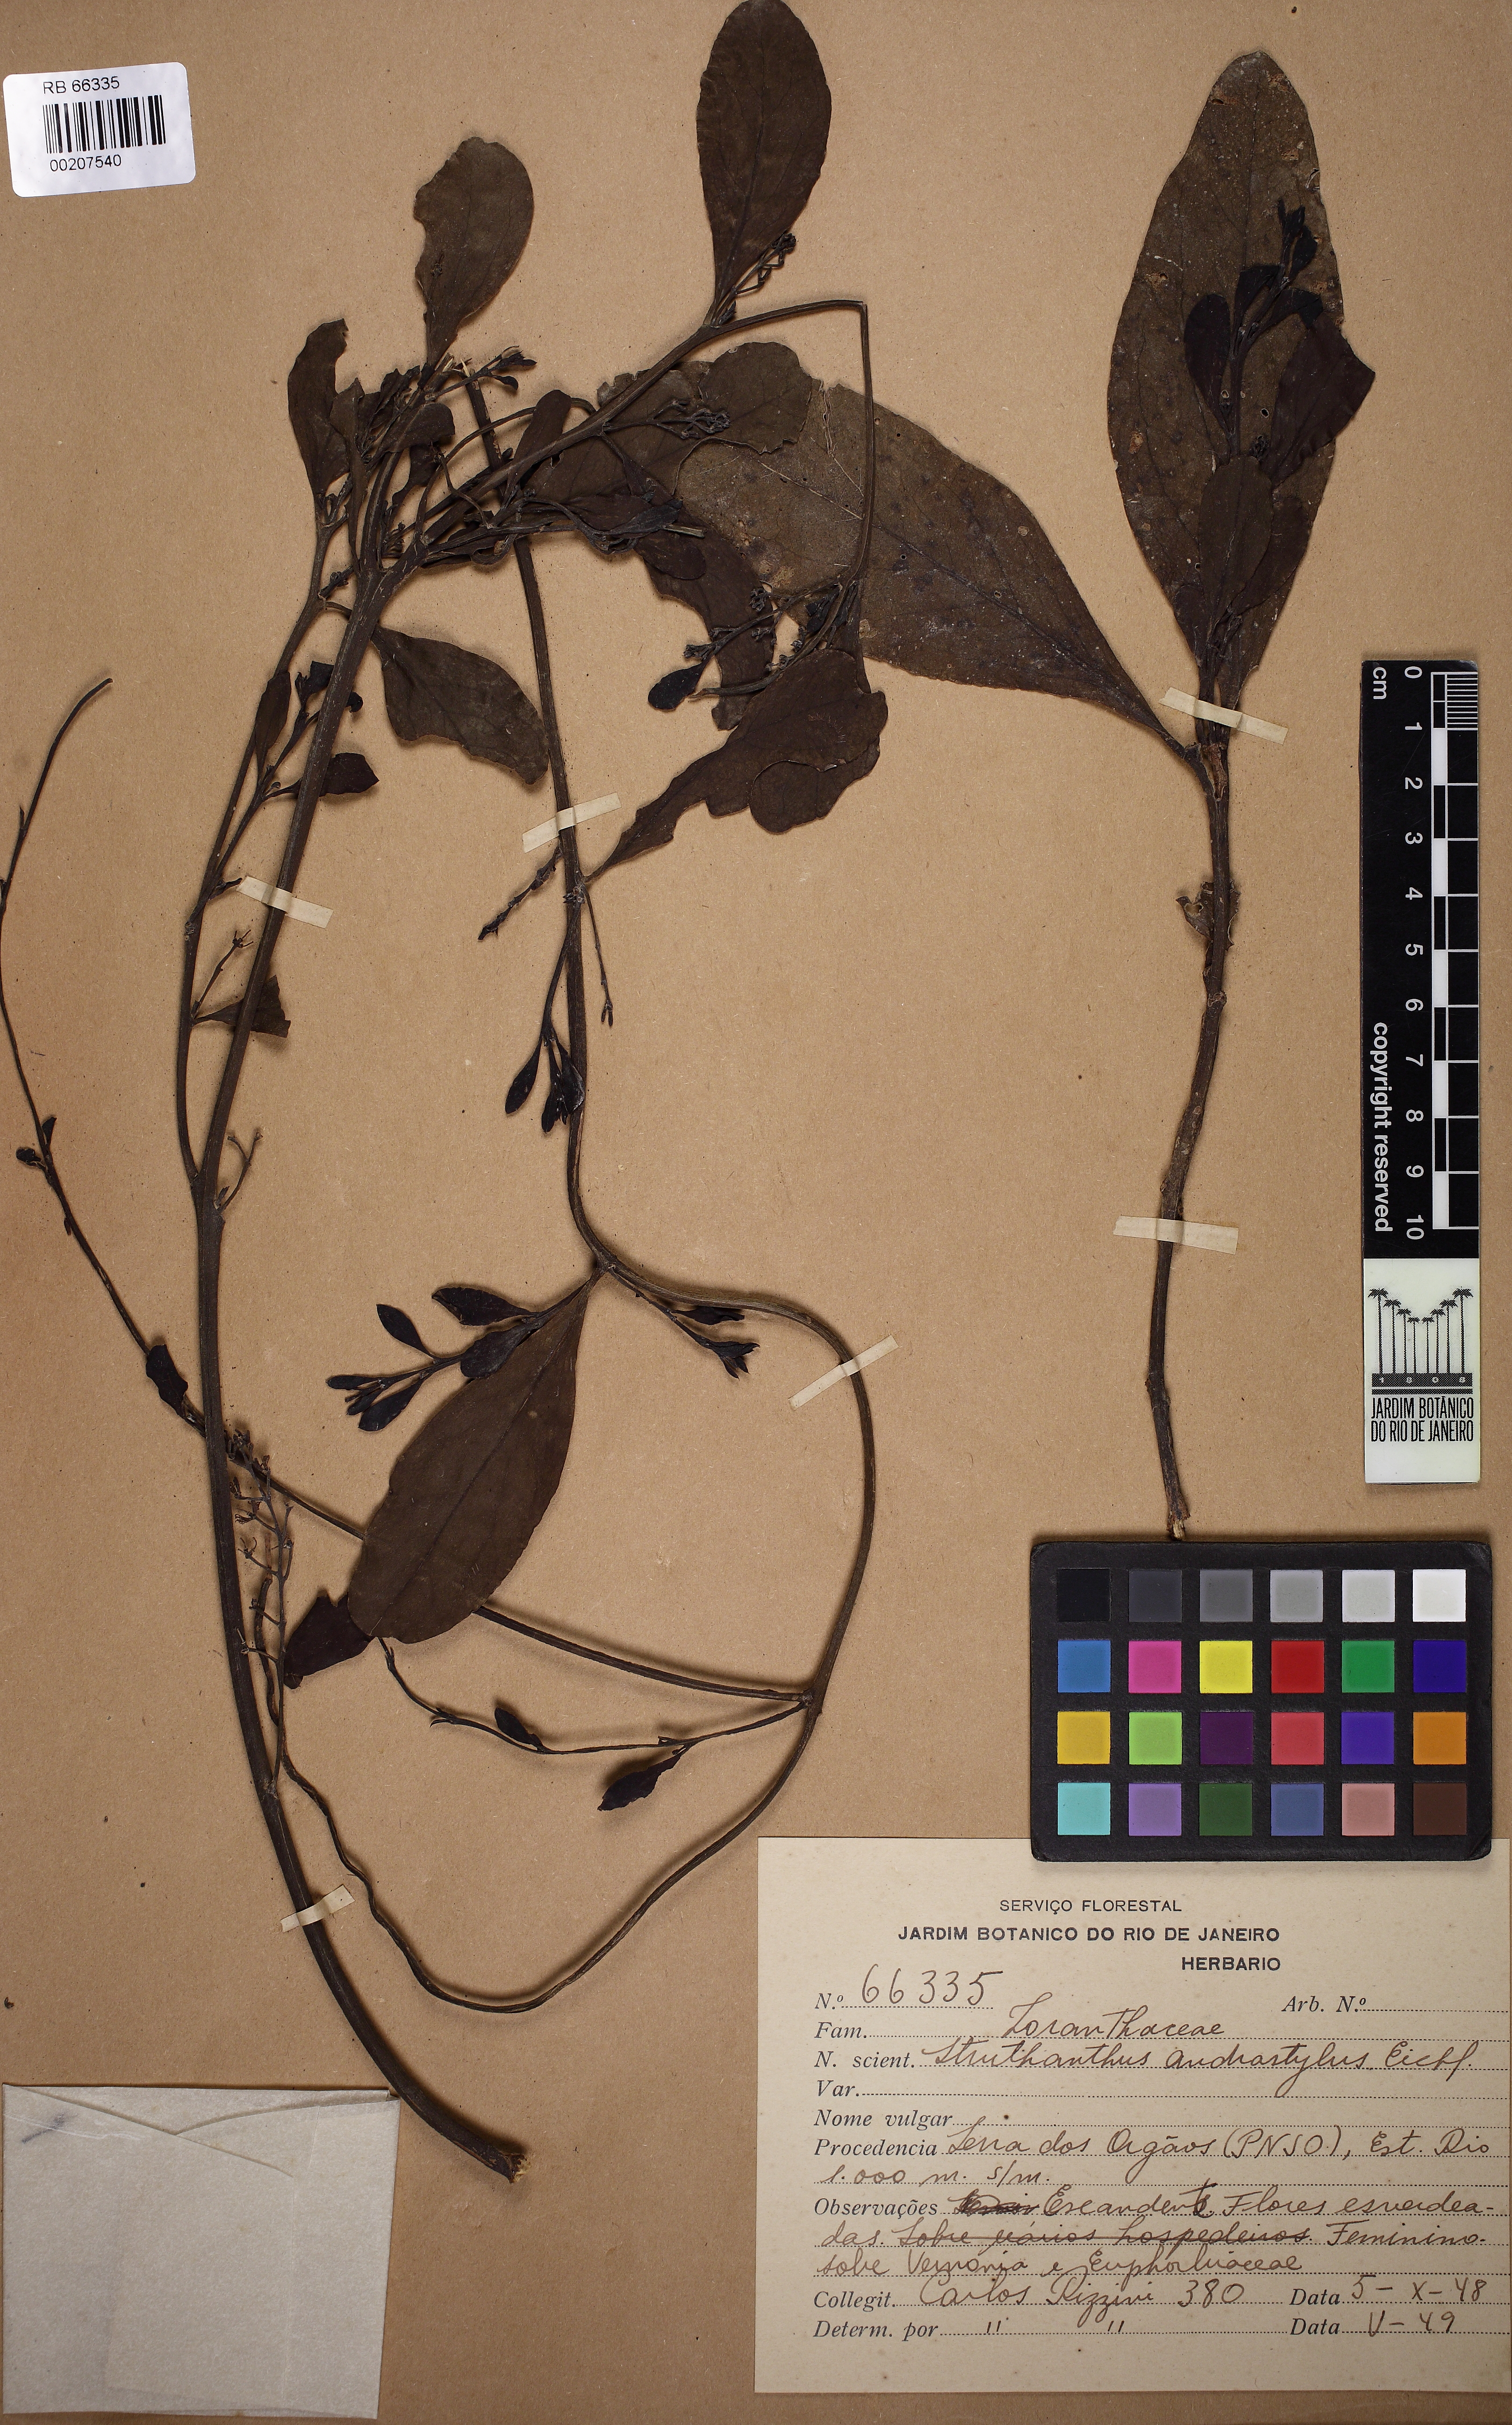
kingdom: Plantae
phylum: Tracheophyta
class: Magnoliopsida
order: Santalales
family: Loranthaceae
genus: Struthanthus
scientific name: Struthanthus andrastylus
